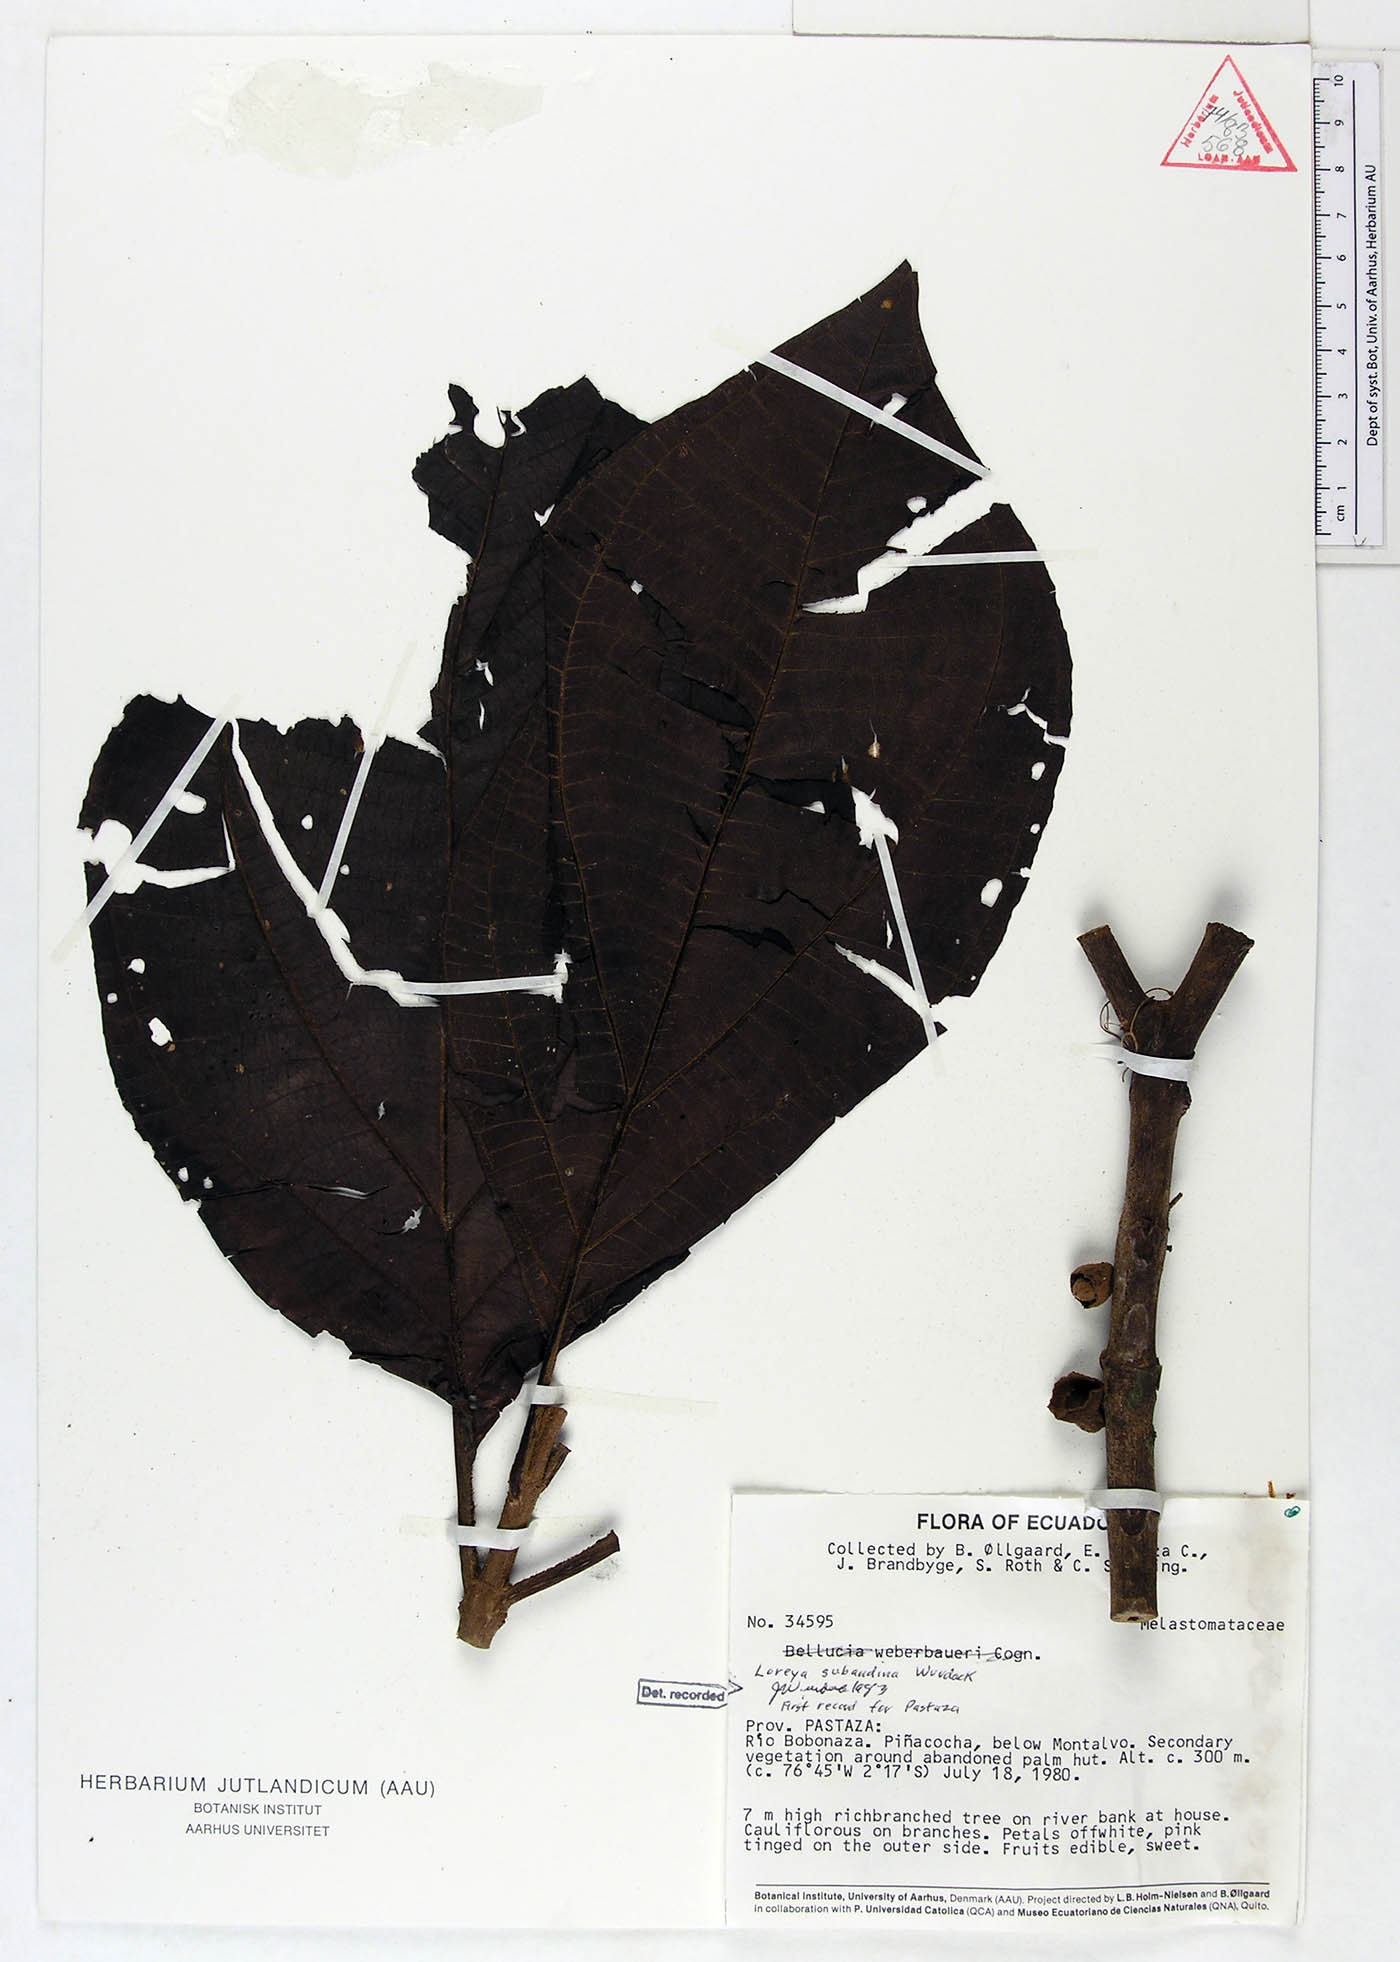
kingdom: Plantae
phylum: Tracheophyta
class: Magnoliopsida
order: Myrtales
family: Melastomataceae
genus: Bellucia
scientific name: Bellucia subandina
